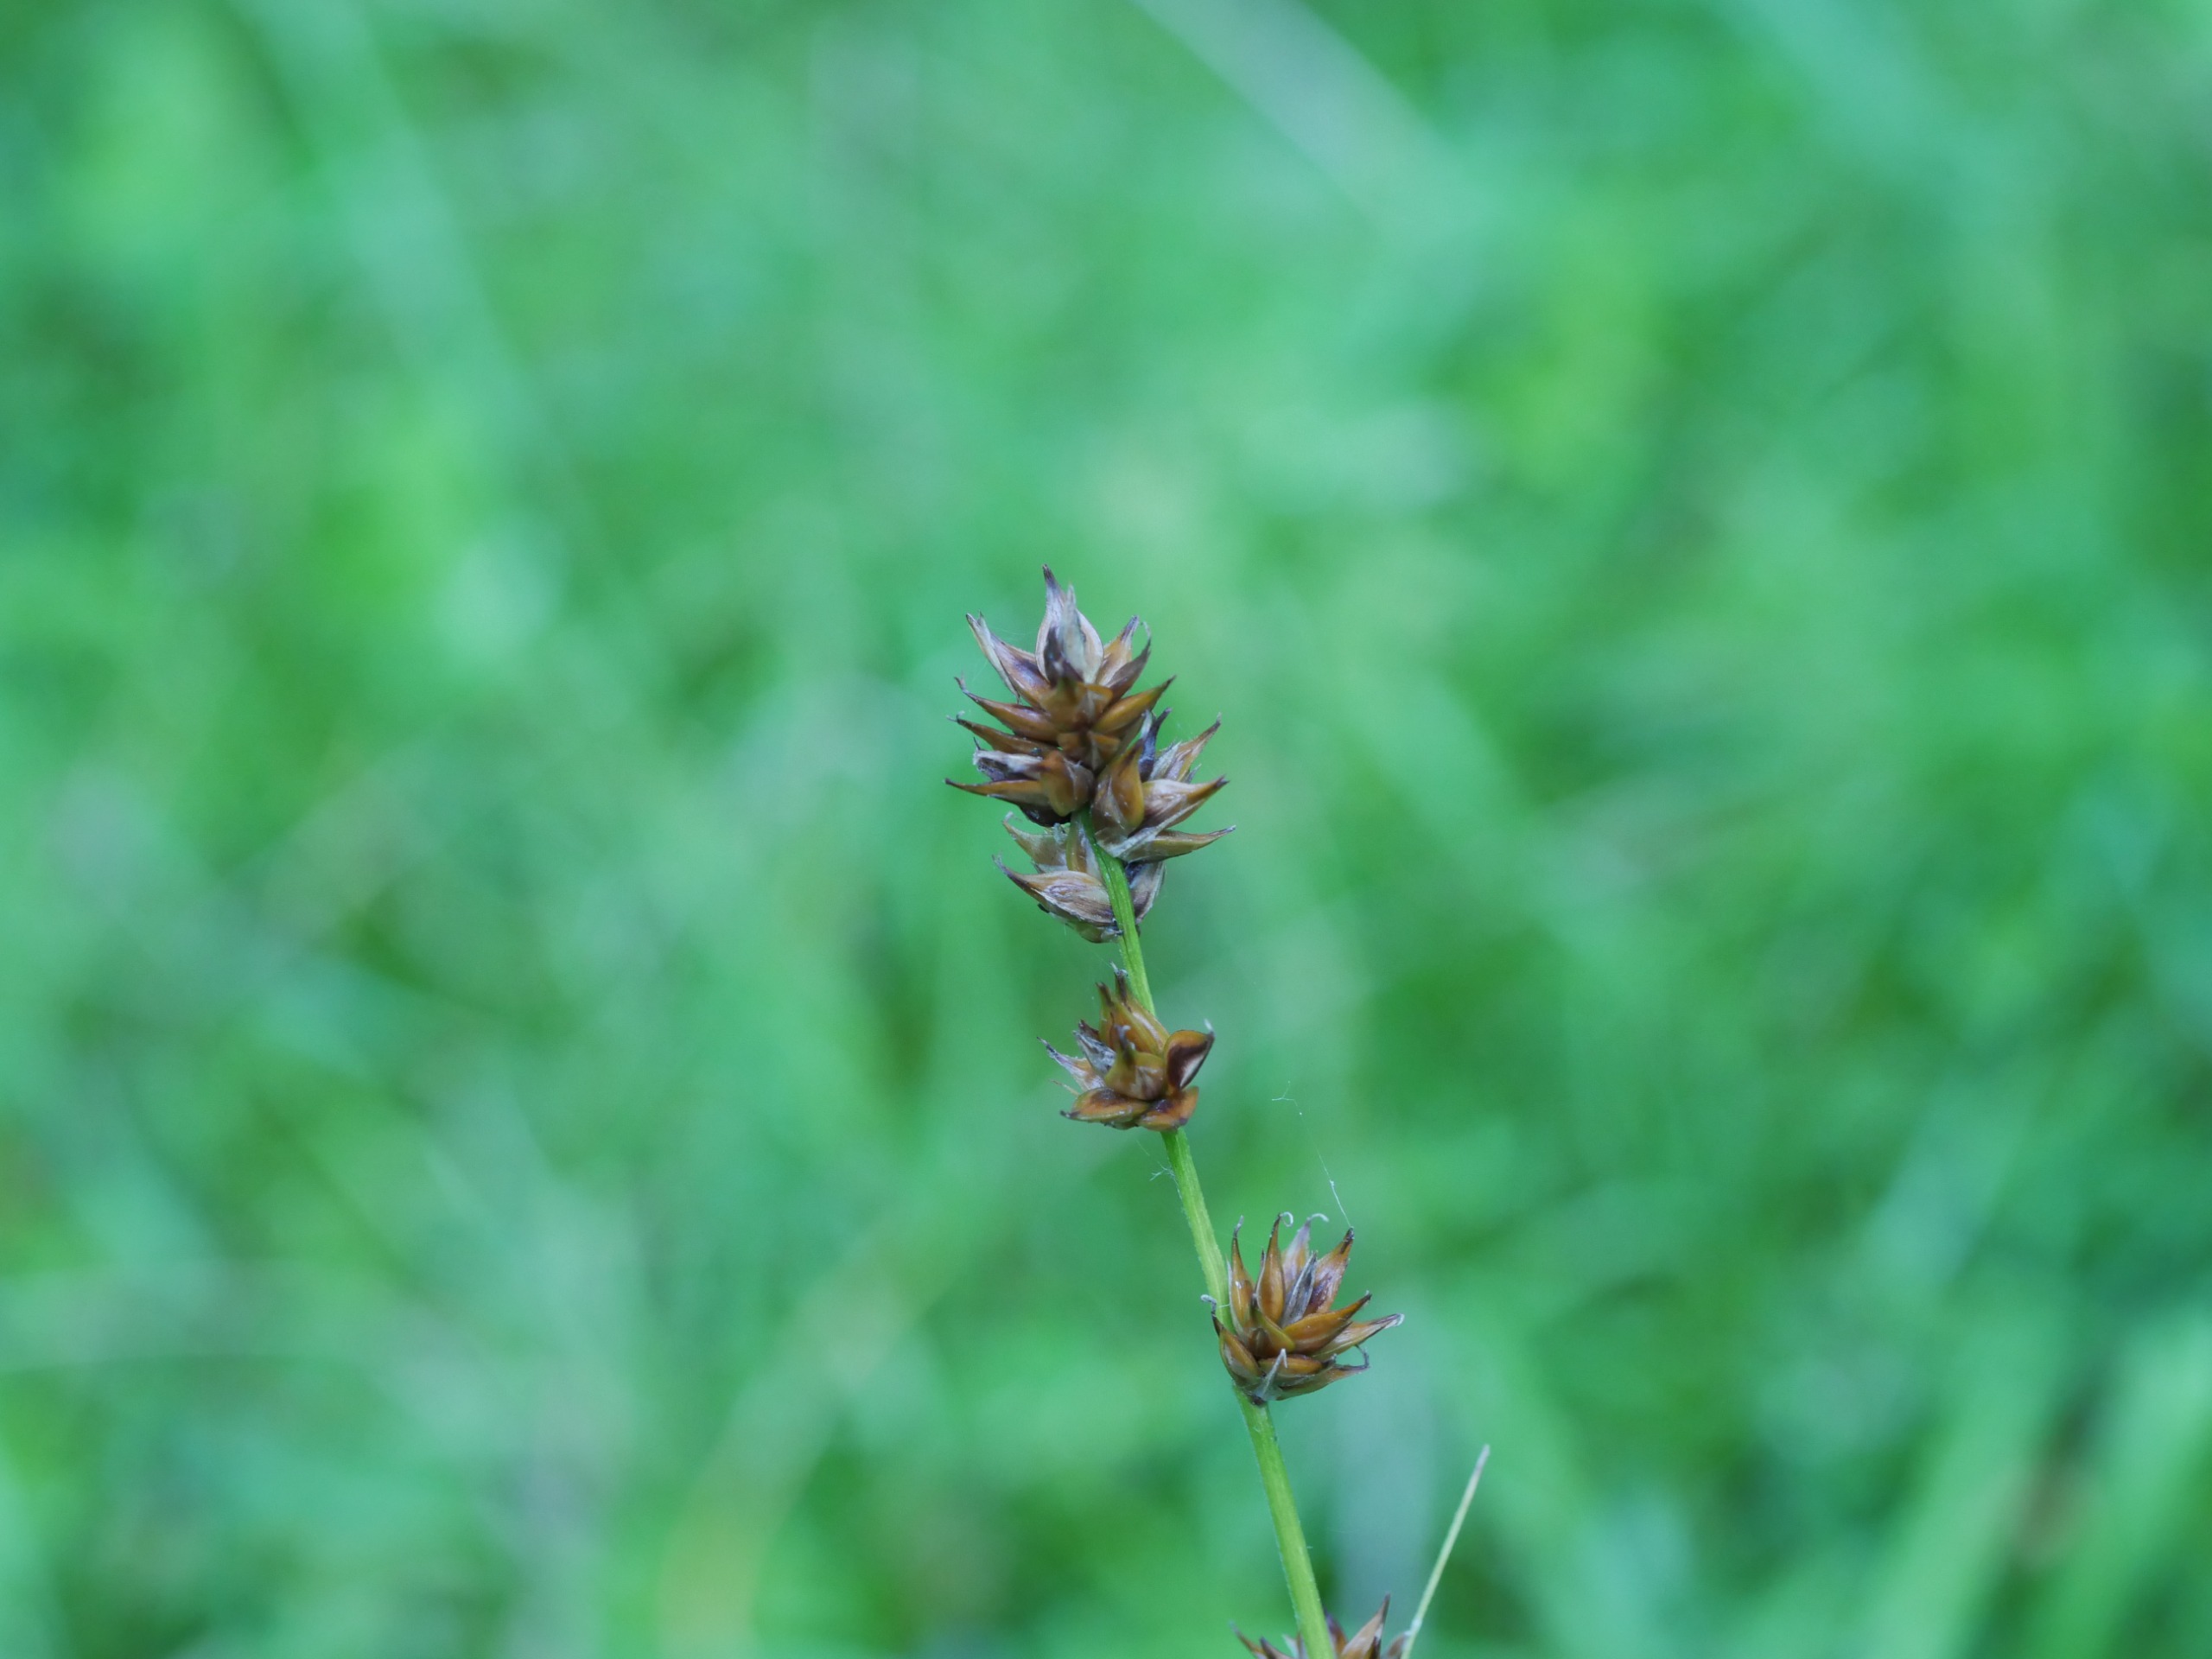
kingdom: Plantae
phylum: Tracheophyta
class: Liliopsida
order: Poales
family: Cyperaceae
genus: Carex
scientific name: Carex
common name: Starslægten
